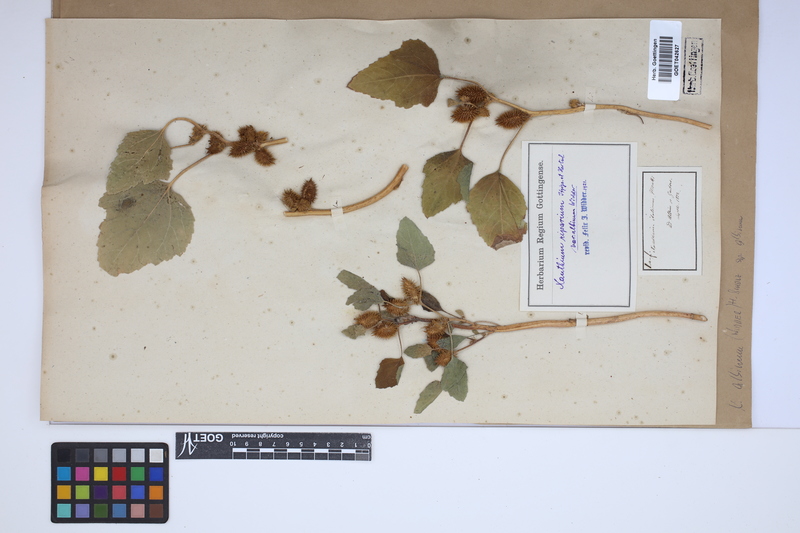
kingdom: Plantae
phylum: Tracheophyta
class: Magnoliopsida
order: Asterales
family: Asteraceae
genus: Xanthium
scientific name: Xanthium orientale
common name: Californian burr
